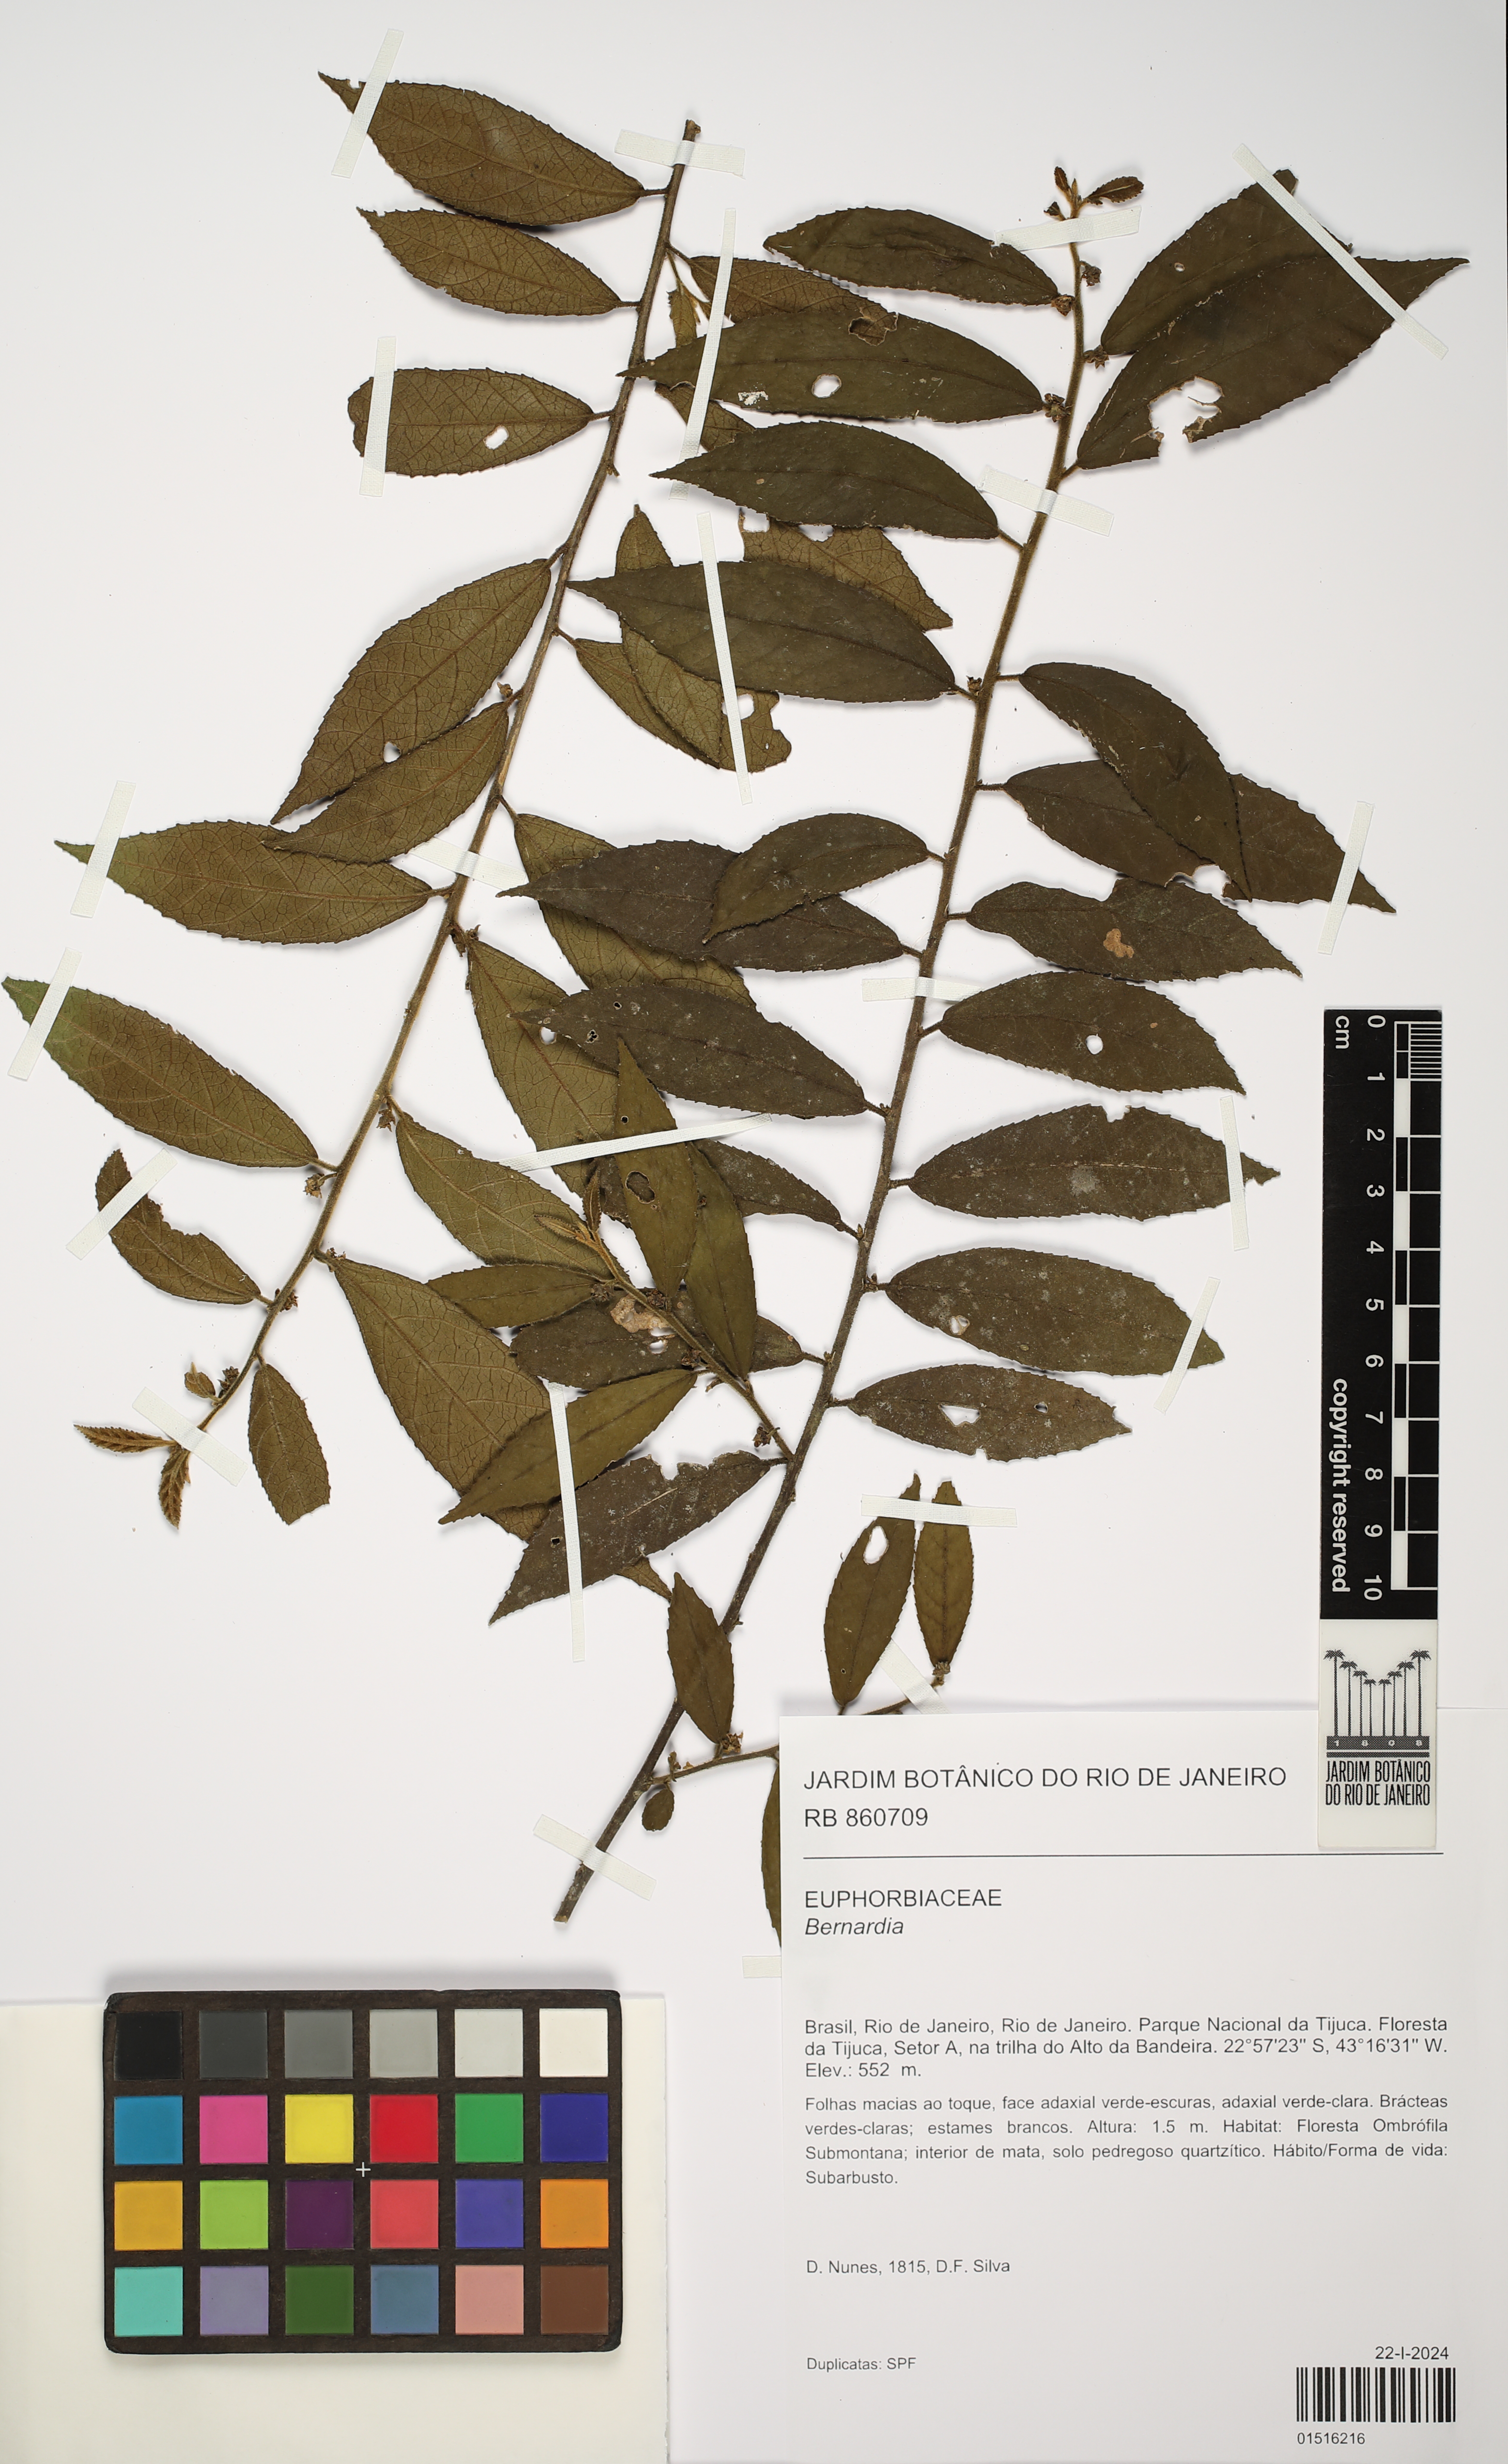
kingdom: Plantae
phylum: Tracheophyta
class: Magnoliopsida
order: Malpighiales
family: Euphorbiaceae
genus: Bernardia
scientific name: Bernardia
